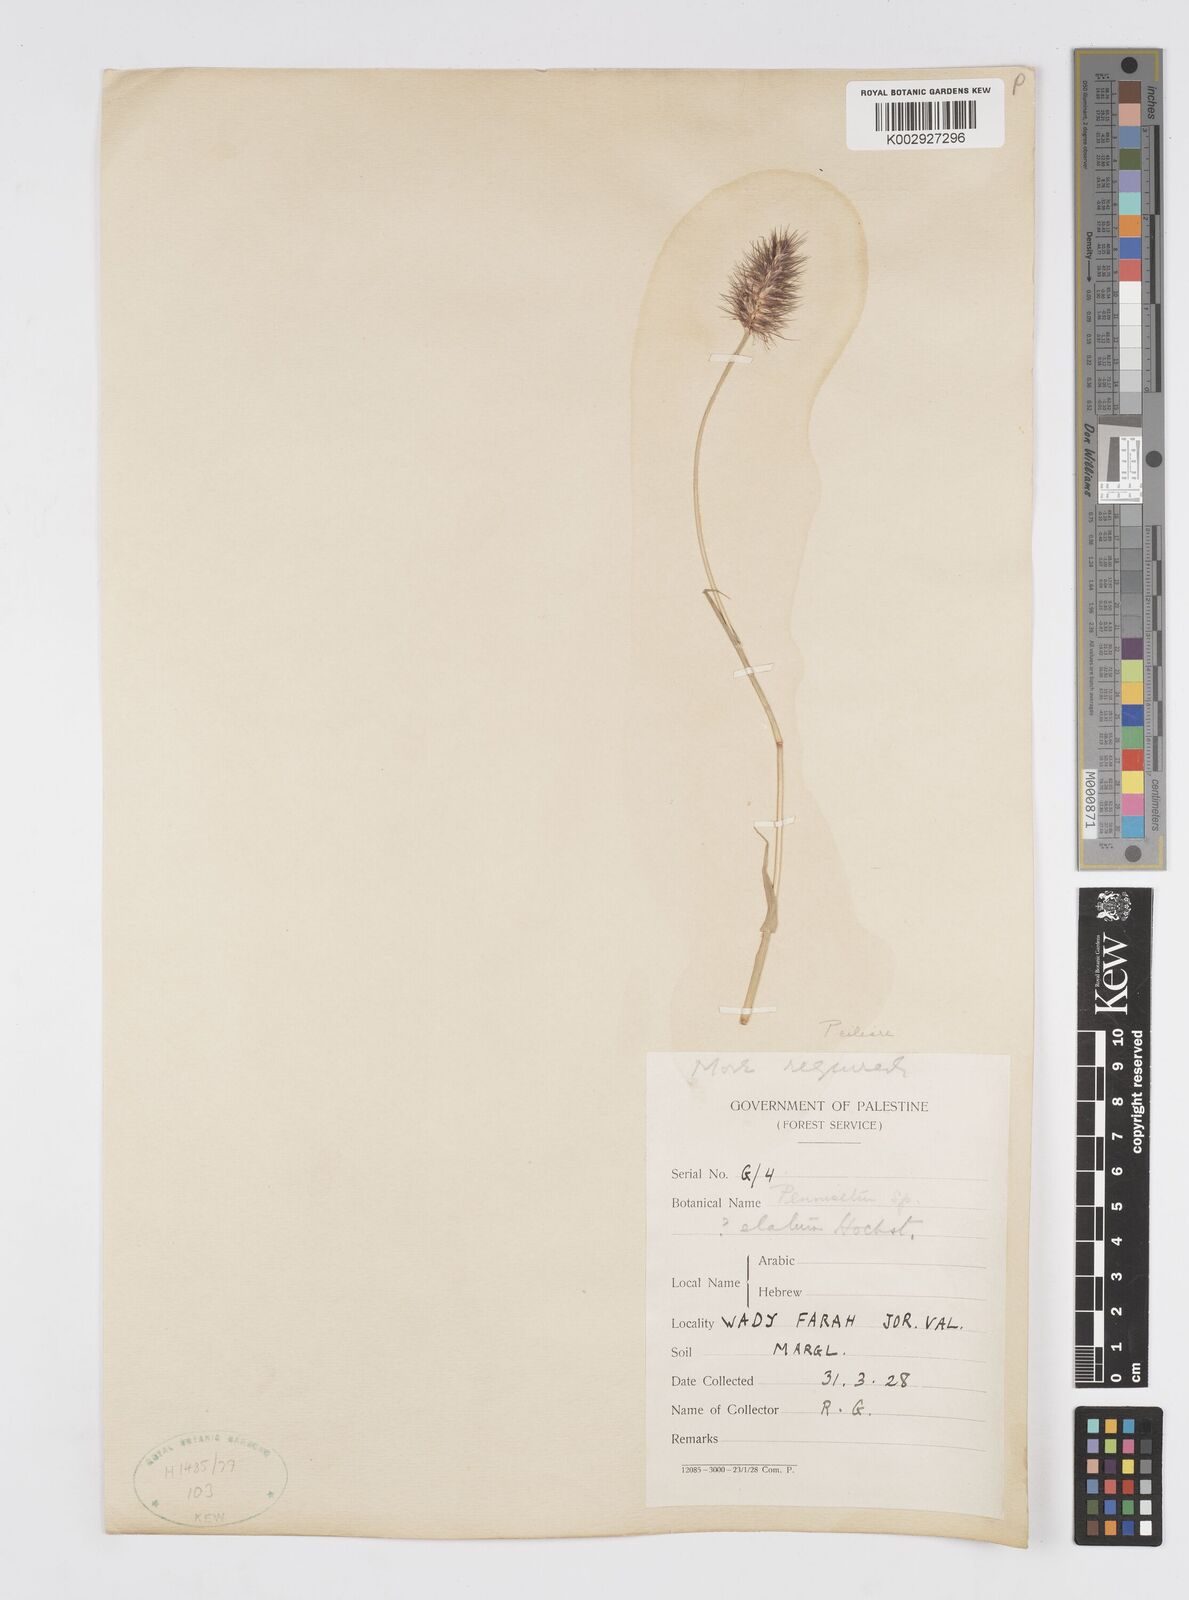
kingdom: Plantae
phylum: Tracheophyta
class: Liliopsida
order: Poales
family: Poaceae
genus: Cenchrus
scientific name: Cenchrus ciliaris
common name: Buffelgrass
